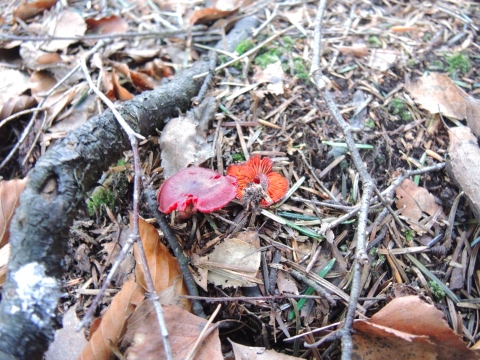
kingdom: Fungi
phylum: Basidiomycota
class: Agaricomycetes
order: Agaricales
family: Cortinariaceae
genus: Cortinarius
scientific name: Cortinarius sanguineus
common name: blodrød slørhat
